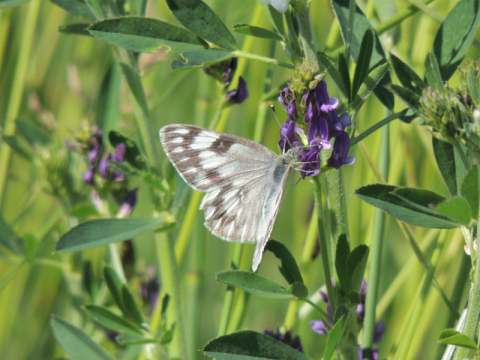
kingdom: Animalia
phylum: Arthropoda
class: Insecta
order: Lepidoptera
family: Pieridae
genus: Pontia
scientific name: Pontia occidentalis
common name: Western White
